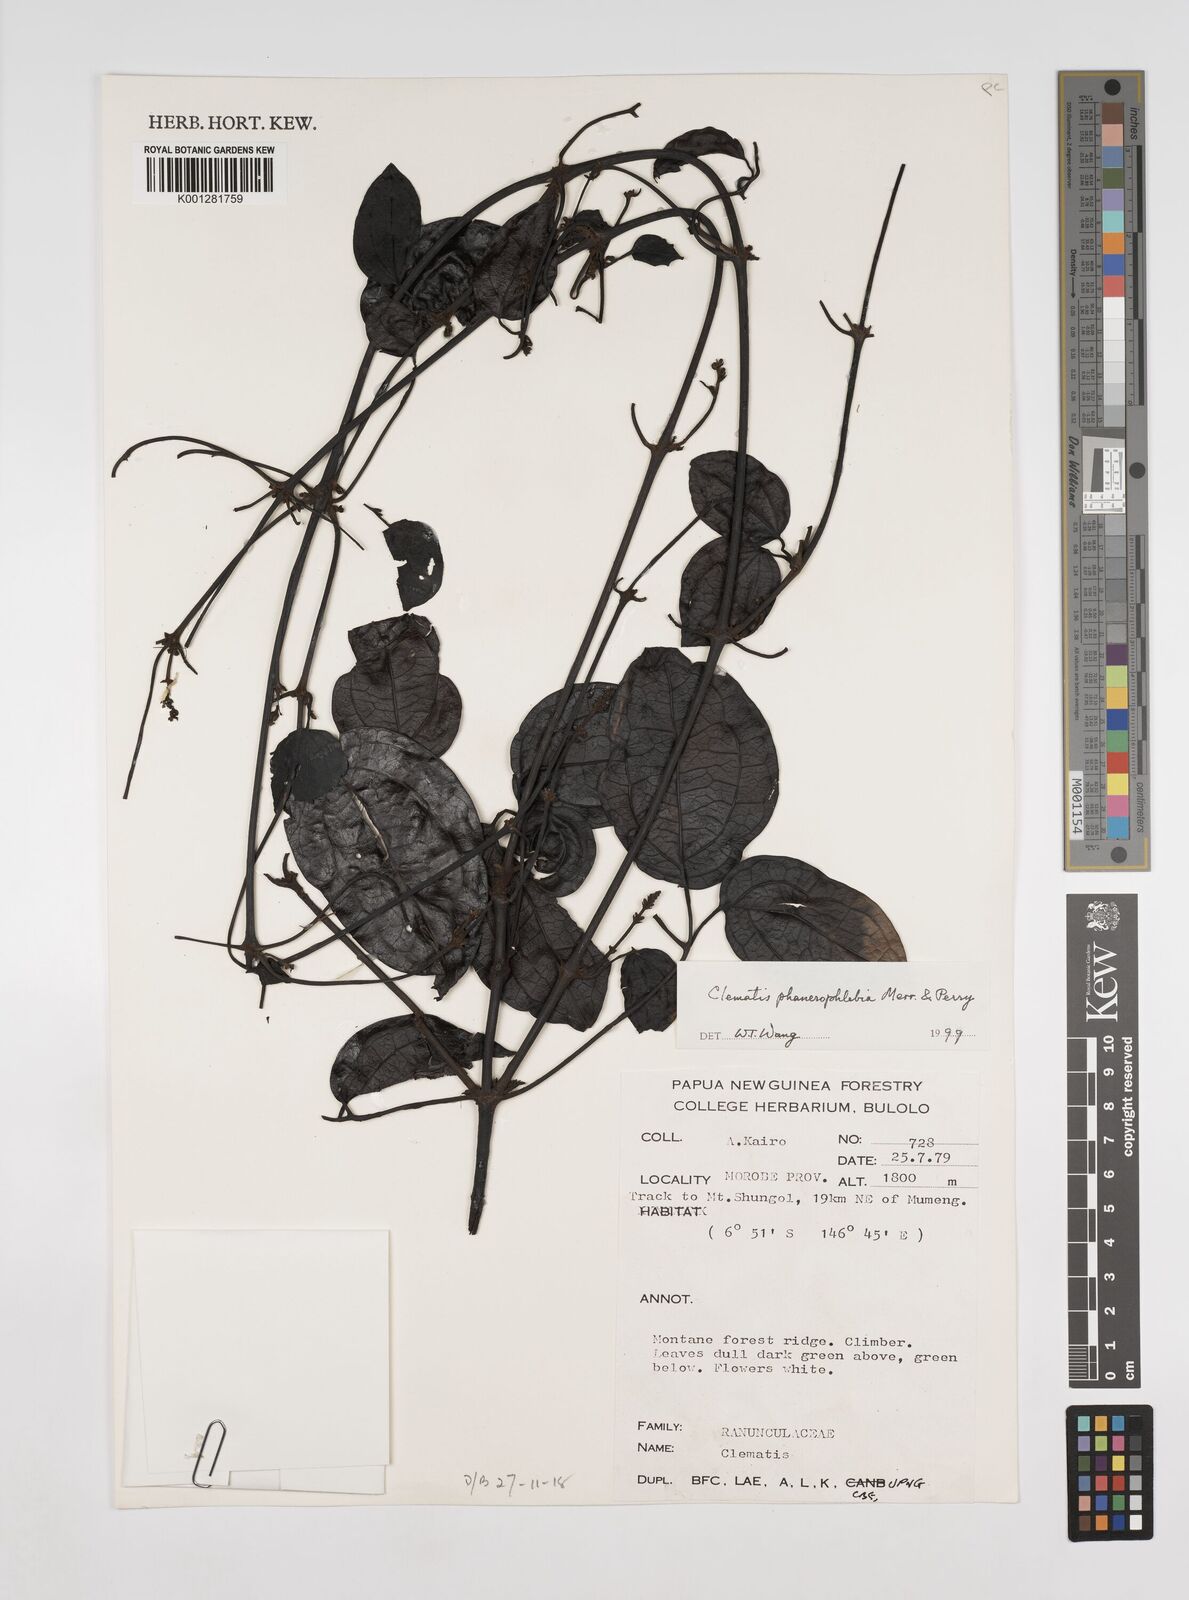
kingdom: Plantae
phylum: Tracheophyta
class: Magnoliopsida
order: Ranunculales
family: Ranunculaceae
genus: Clematis
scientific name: Clematis phanerophlebia
